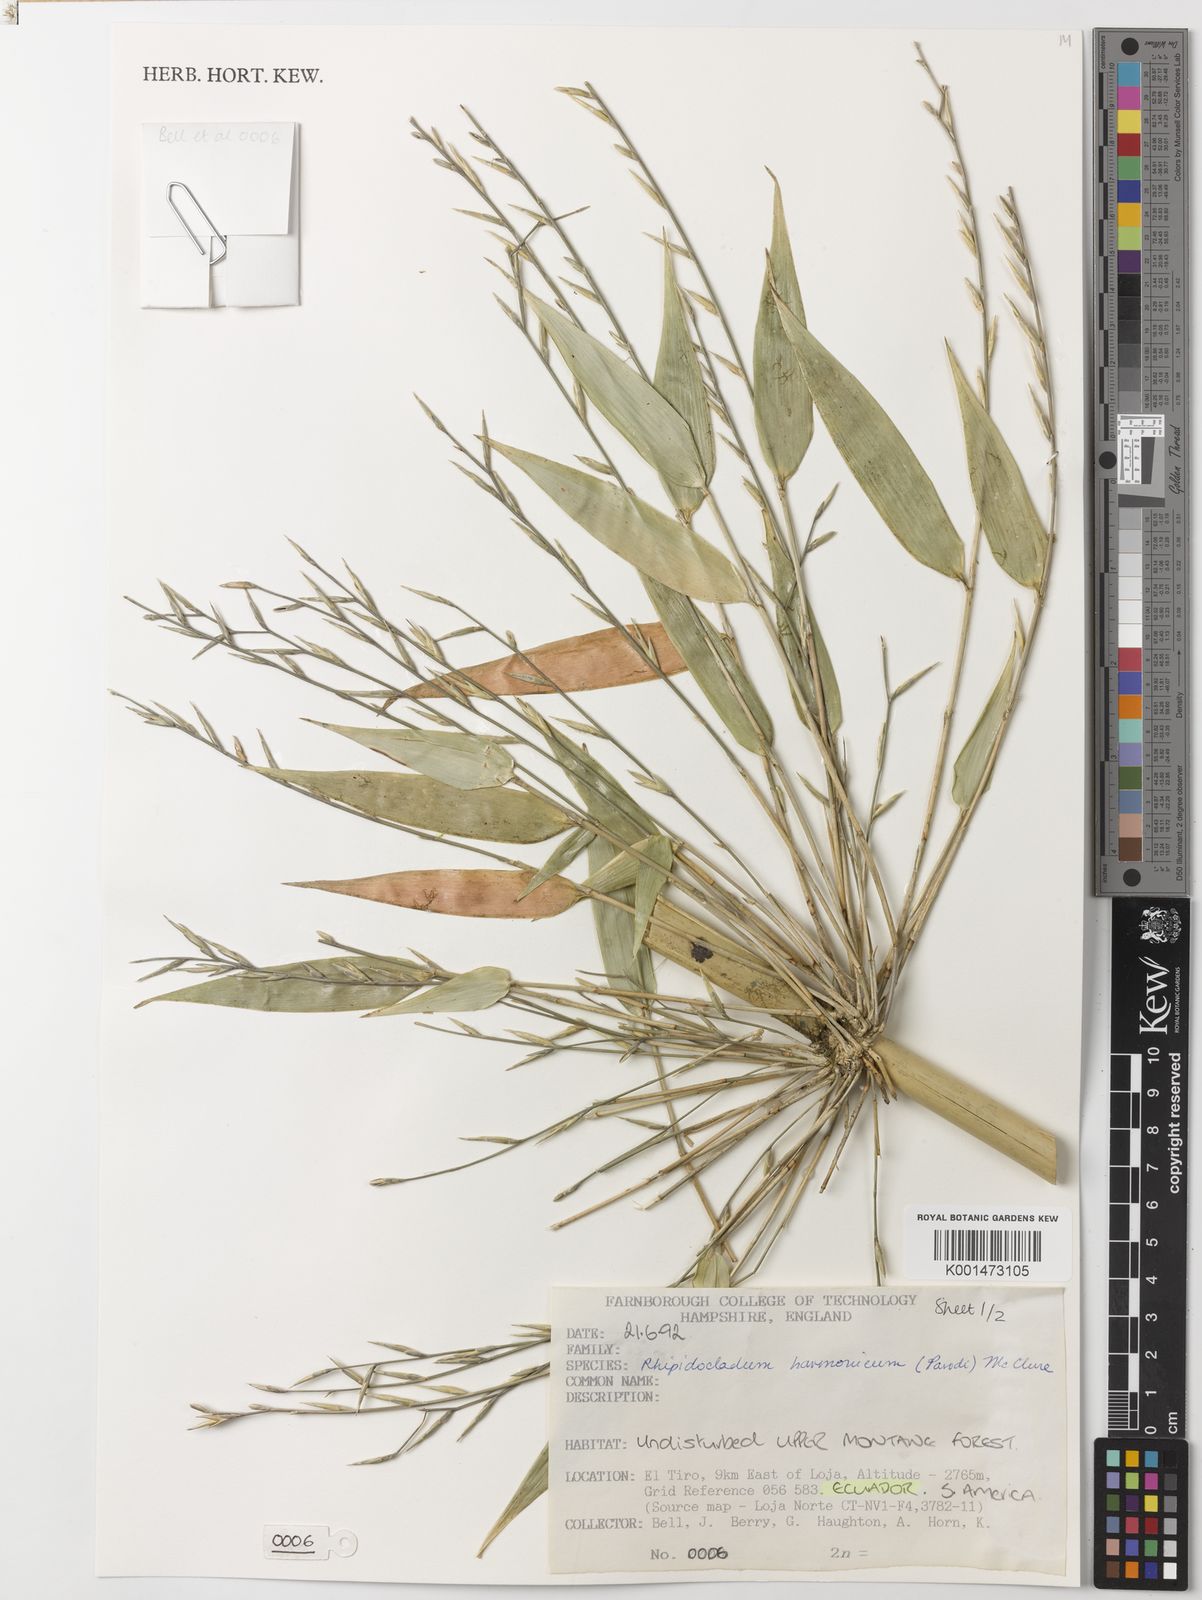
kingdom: Plantae
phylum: Tracheophyta
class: Liliopsida
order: Poales
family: Poaceae
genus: Rhipidocladum
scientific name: Rhipidocladum harmonicum
